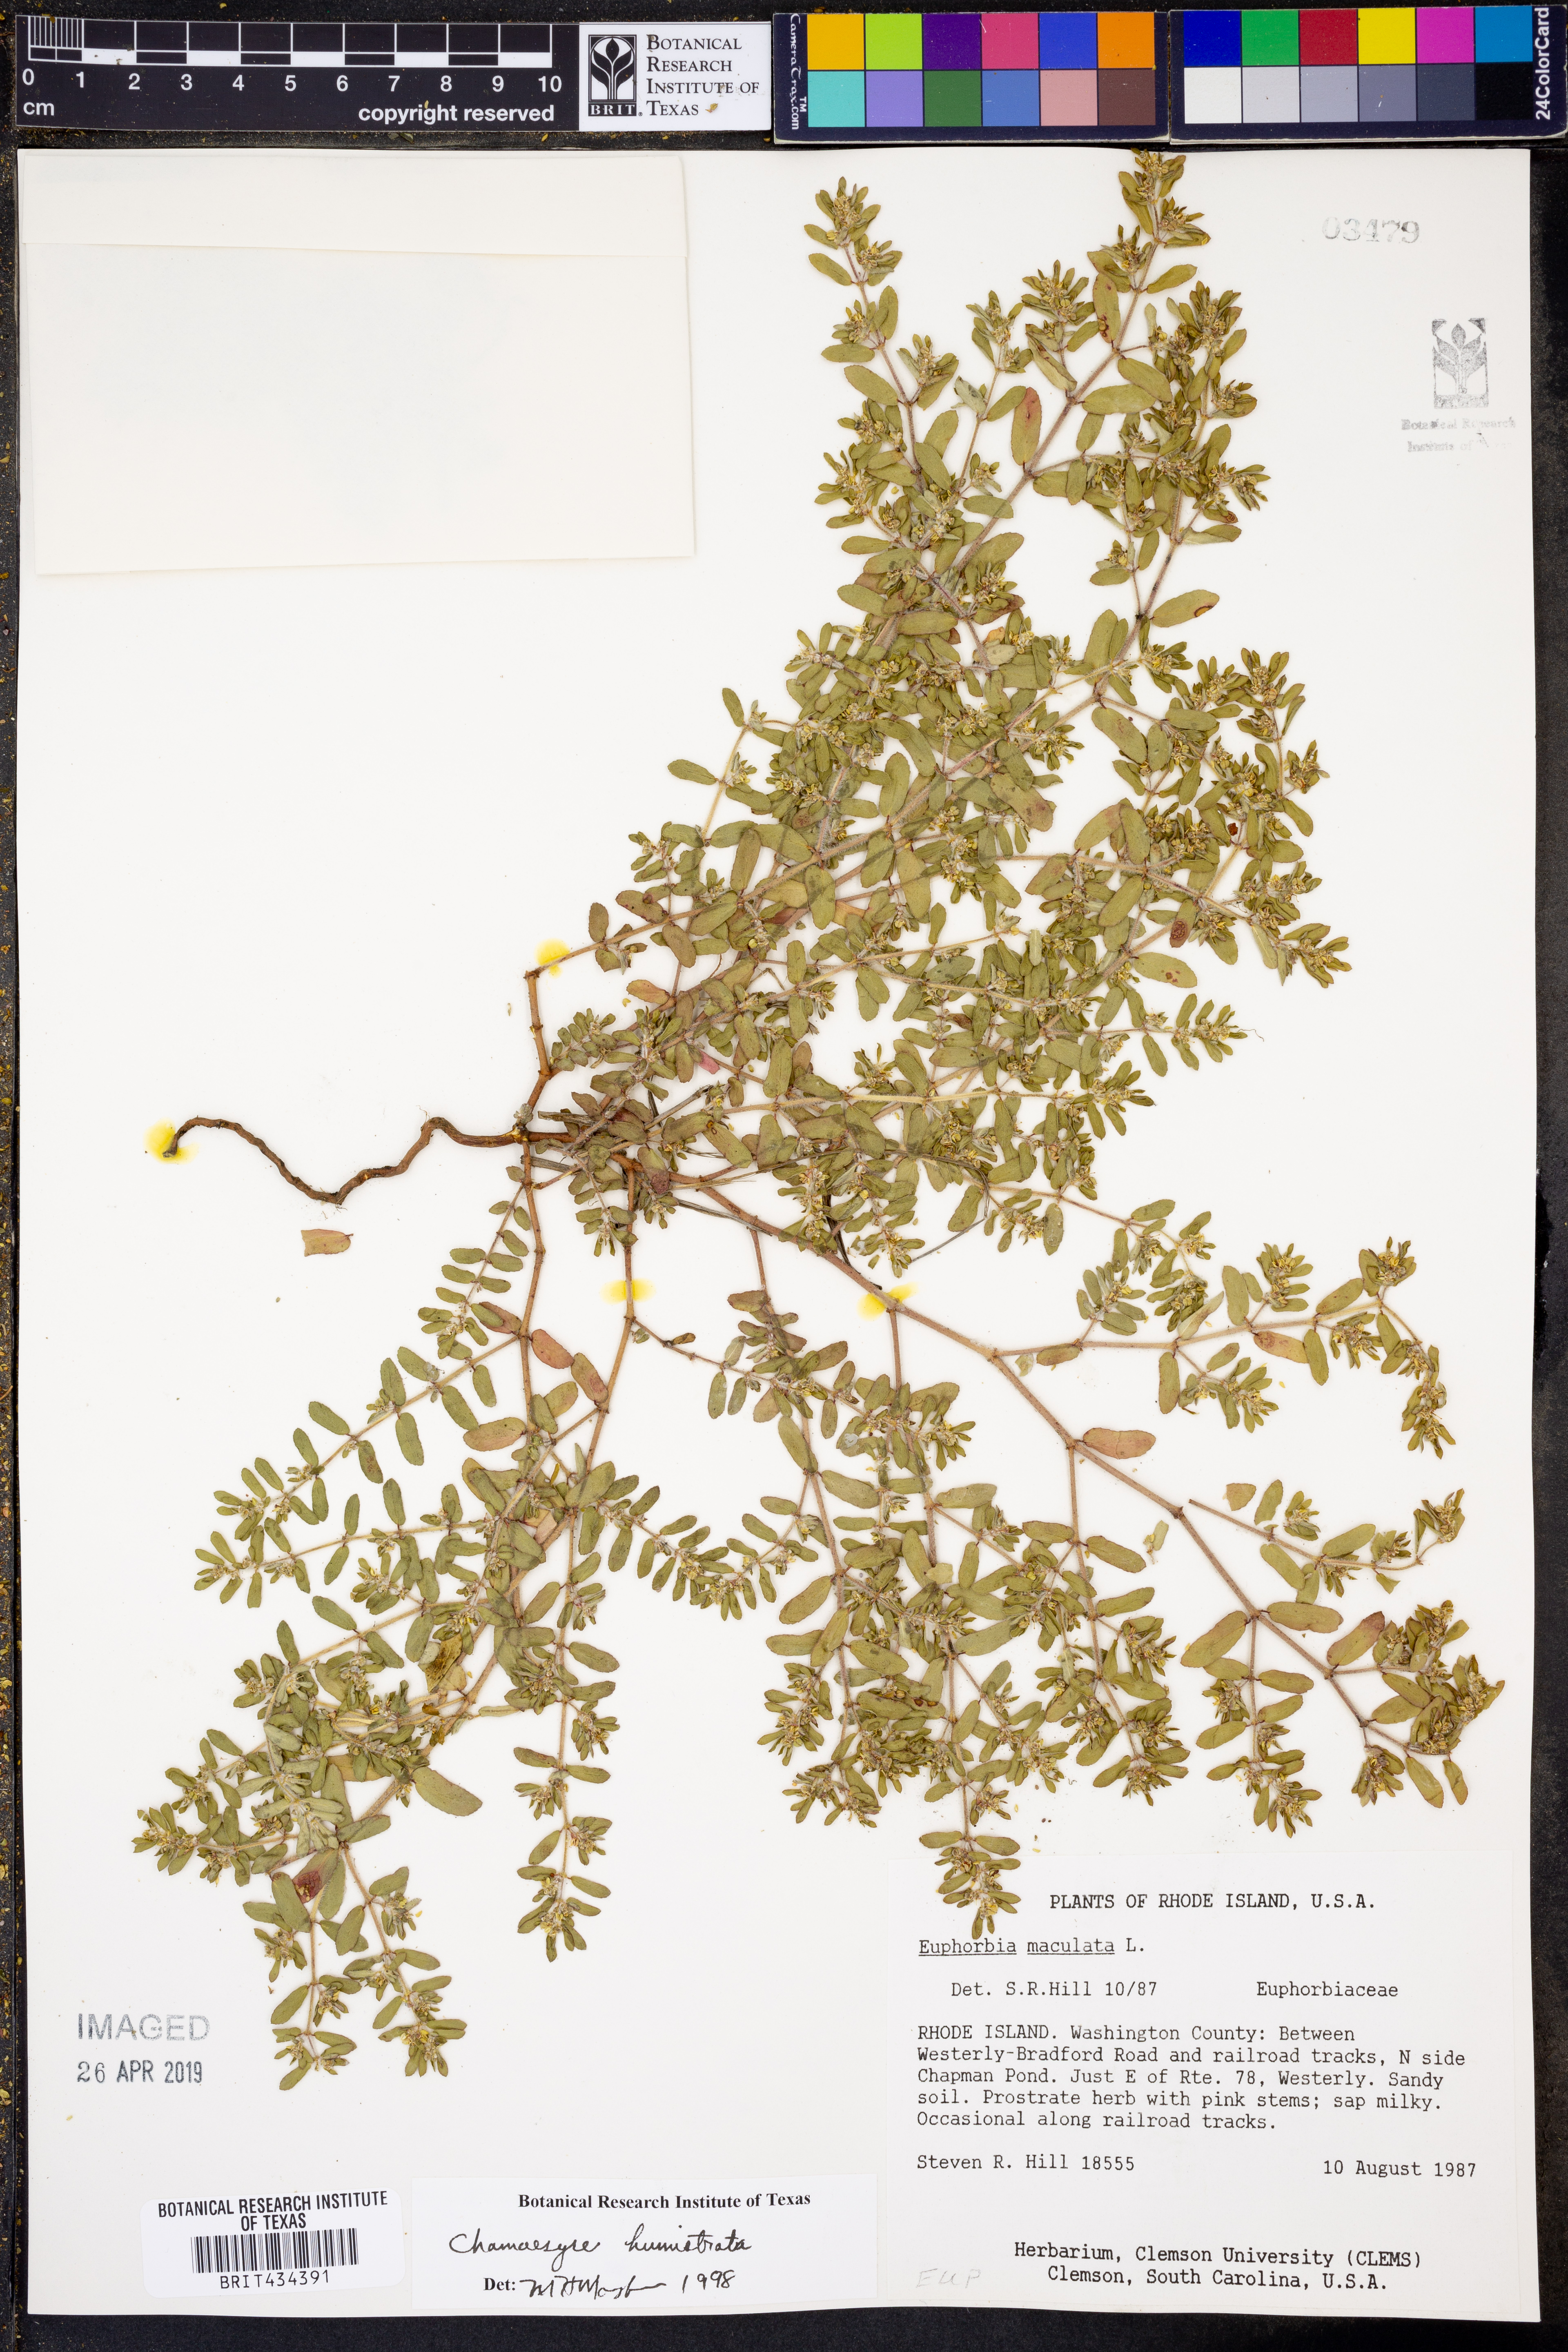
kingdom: Plantae
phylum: Tracheophyta
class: Magnoliopsida
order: Malpighiales
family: Euphorbiaceae
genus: Euphorbia
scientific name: Euphorbia maculata
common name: Spotted spurge
